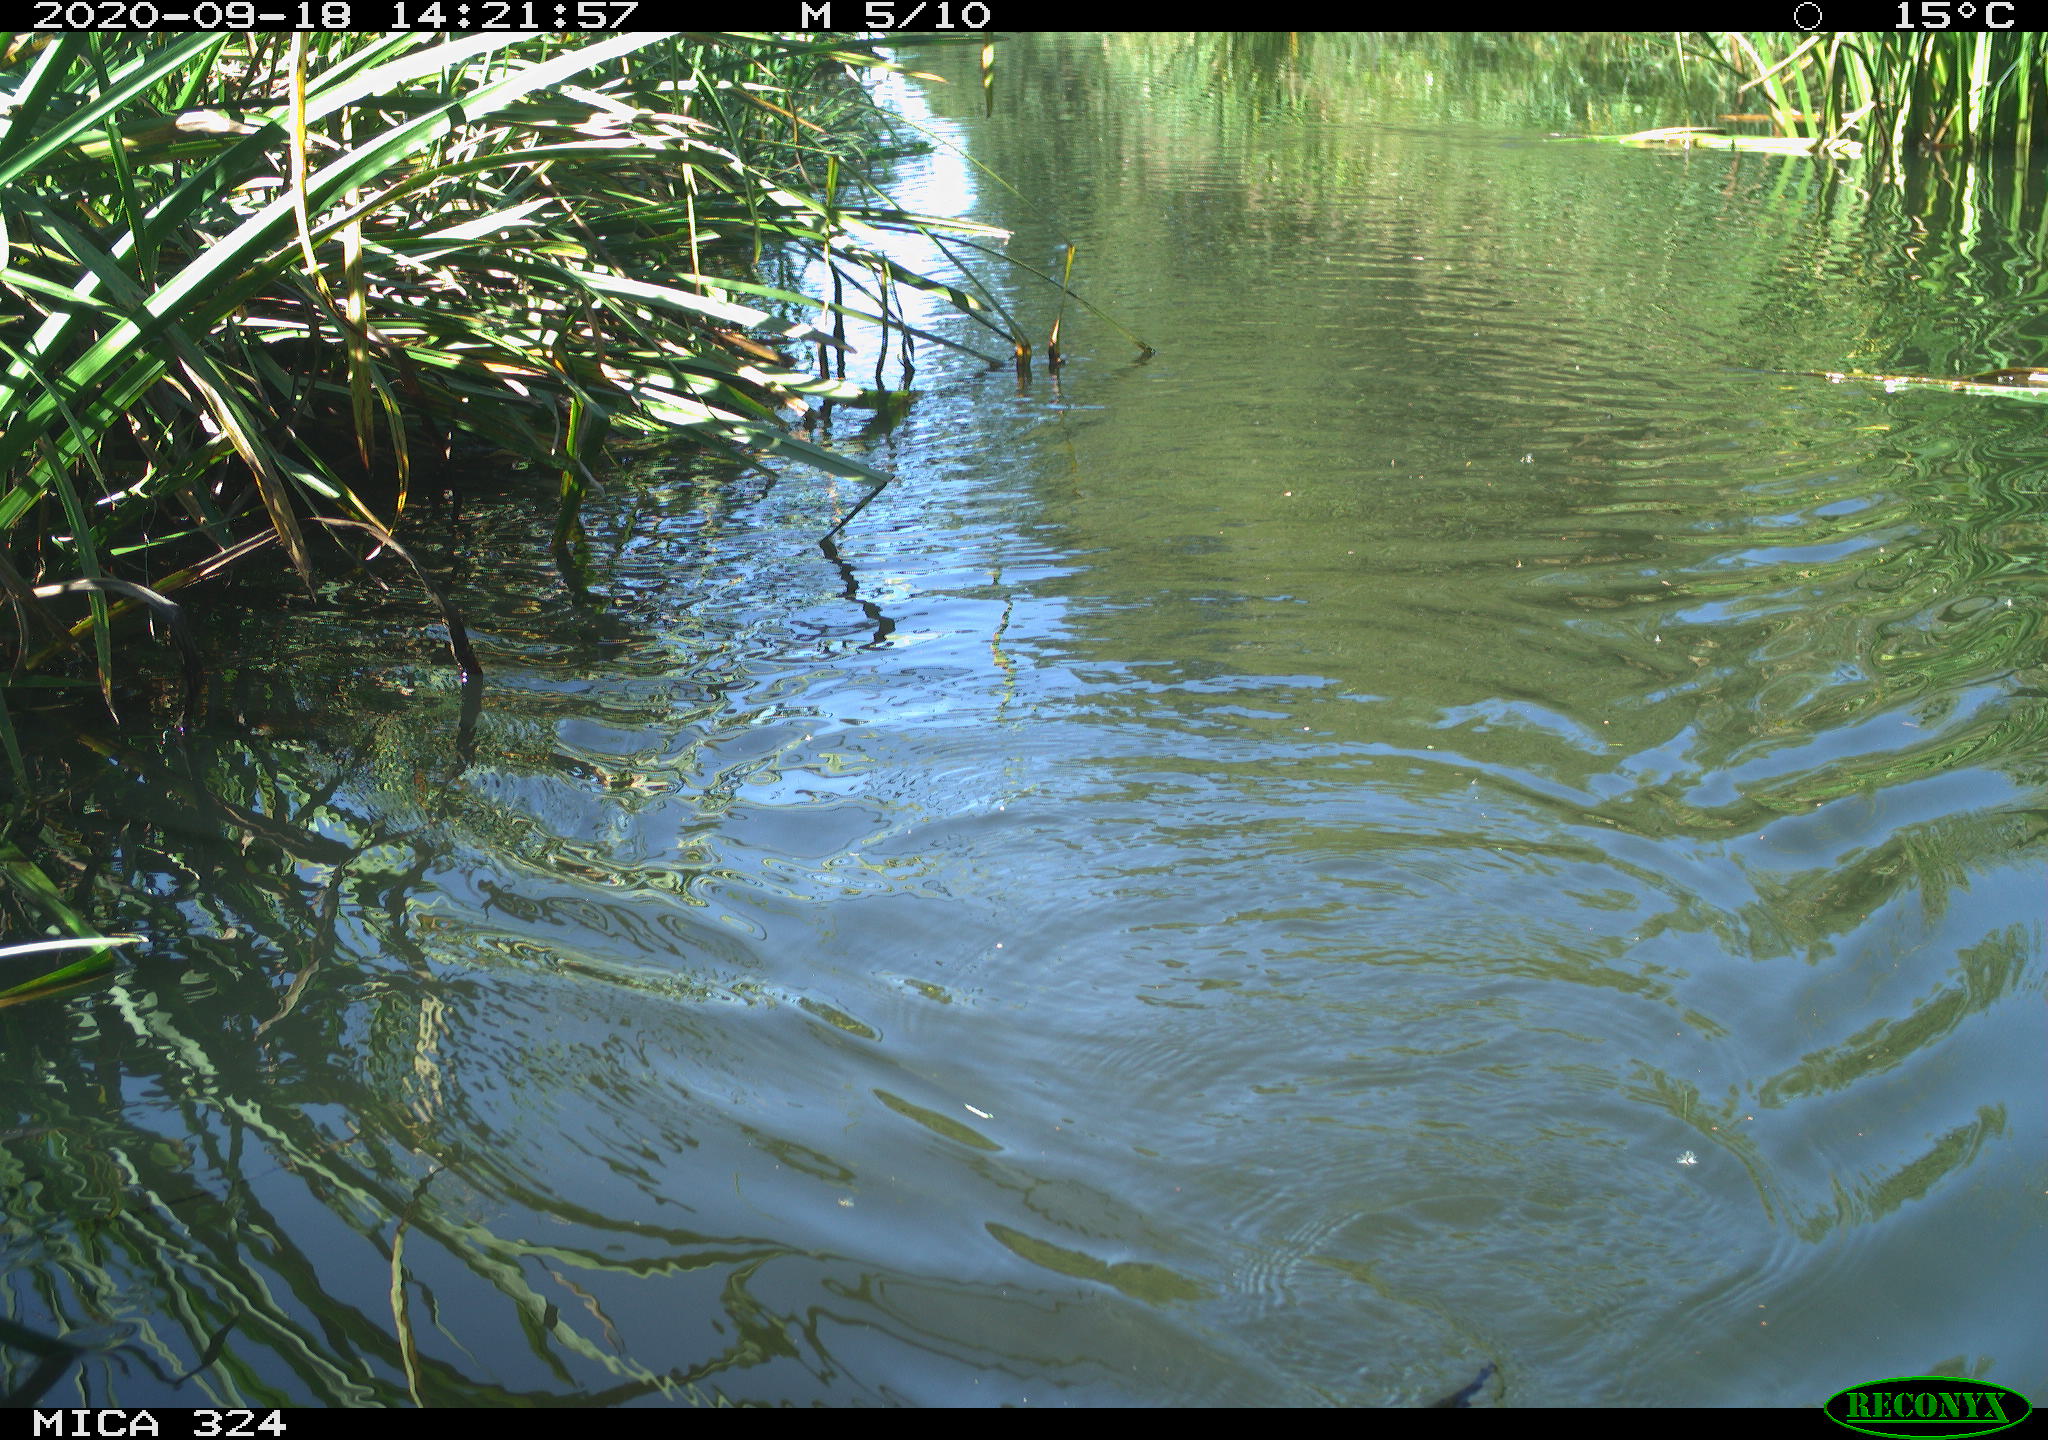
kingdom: Animalia
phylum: Chordata
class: Mammalia
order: Rodentia
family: Cricetidae
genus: Ondatra
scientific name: Ondatra zibethicus
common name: Muskrat
